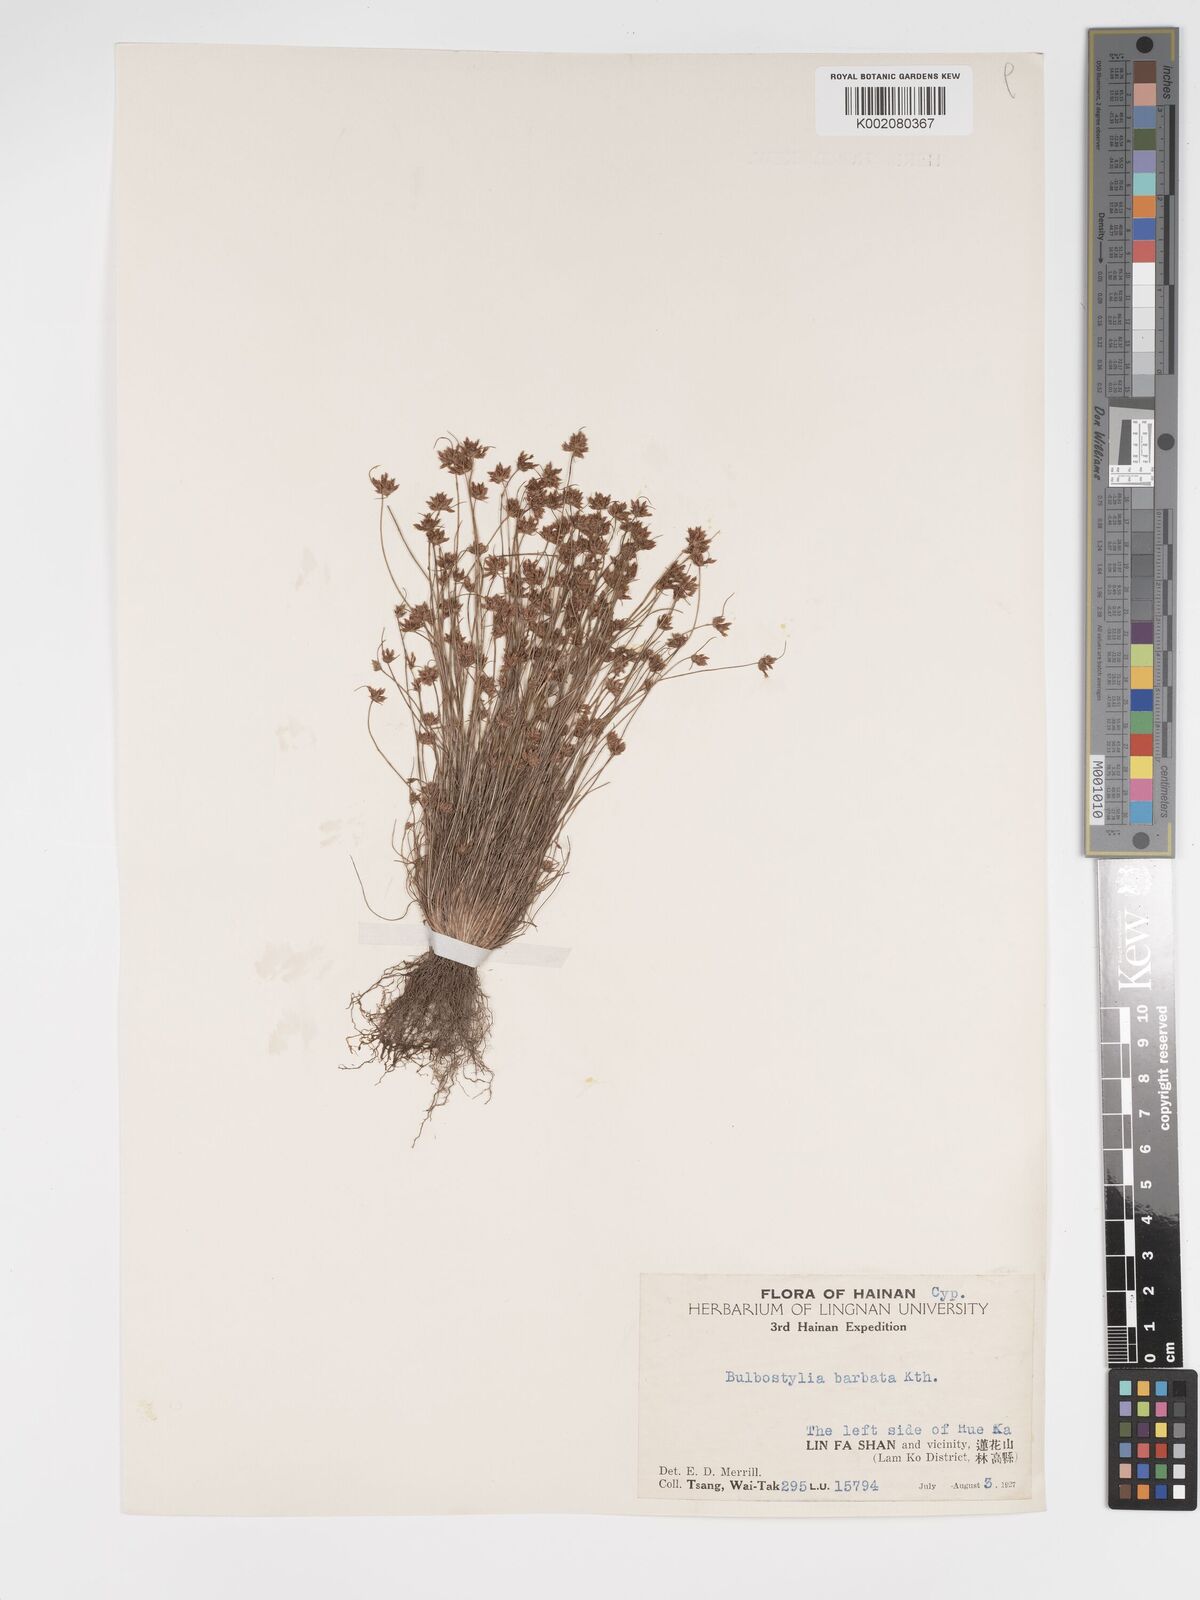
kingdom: Plantae
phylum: Tracheophyta
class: Liliopsida
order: Poales
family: Cyperaceae
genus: Bulbostylis
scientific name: Bulbostylis barbata
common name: Watergrass
